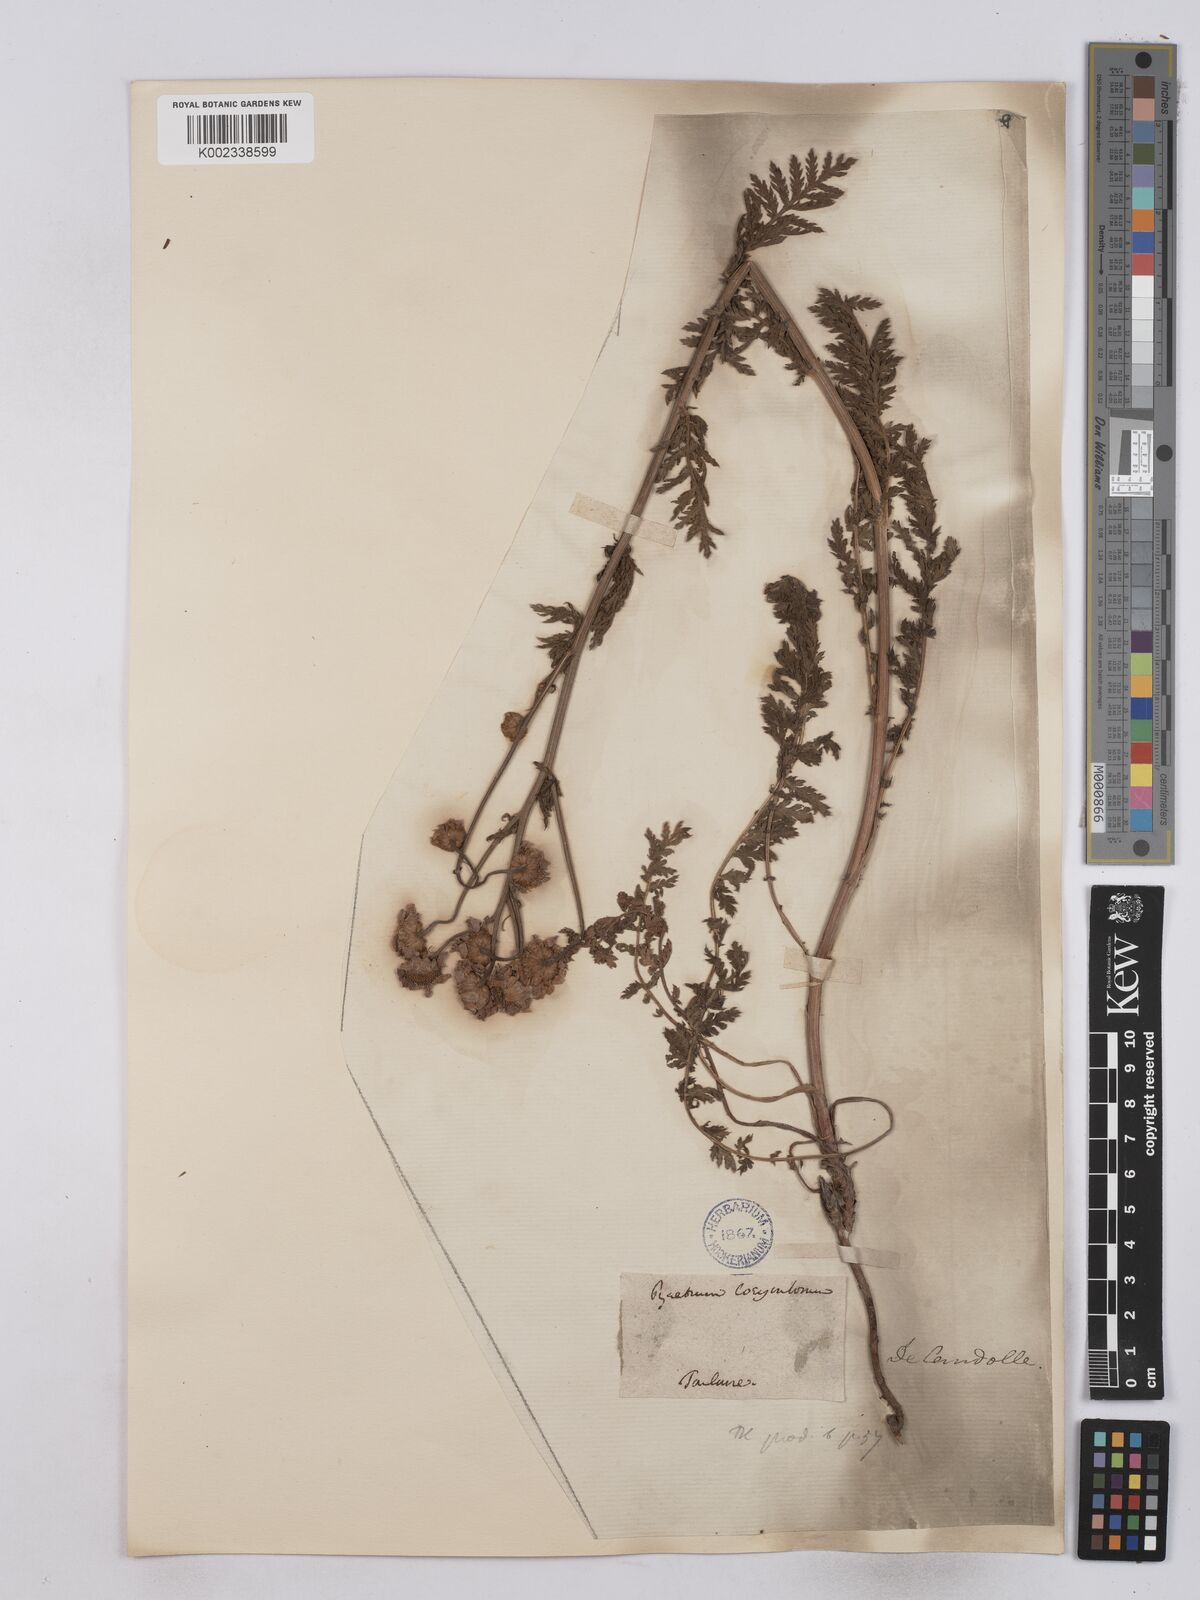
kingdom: Plantae
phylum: Tracheophyta
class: Magnoliopsida
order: Asterales
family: Asteraceae
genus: Tanacetum
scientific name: Tanacetum corymbosum
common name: Scentless feverfew
